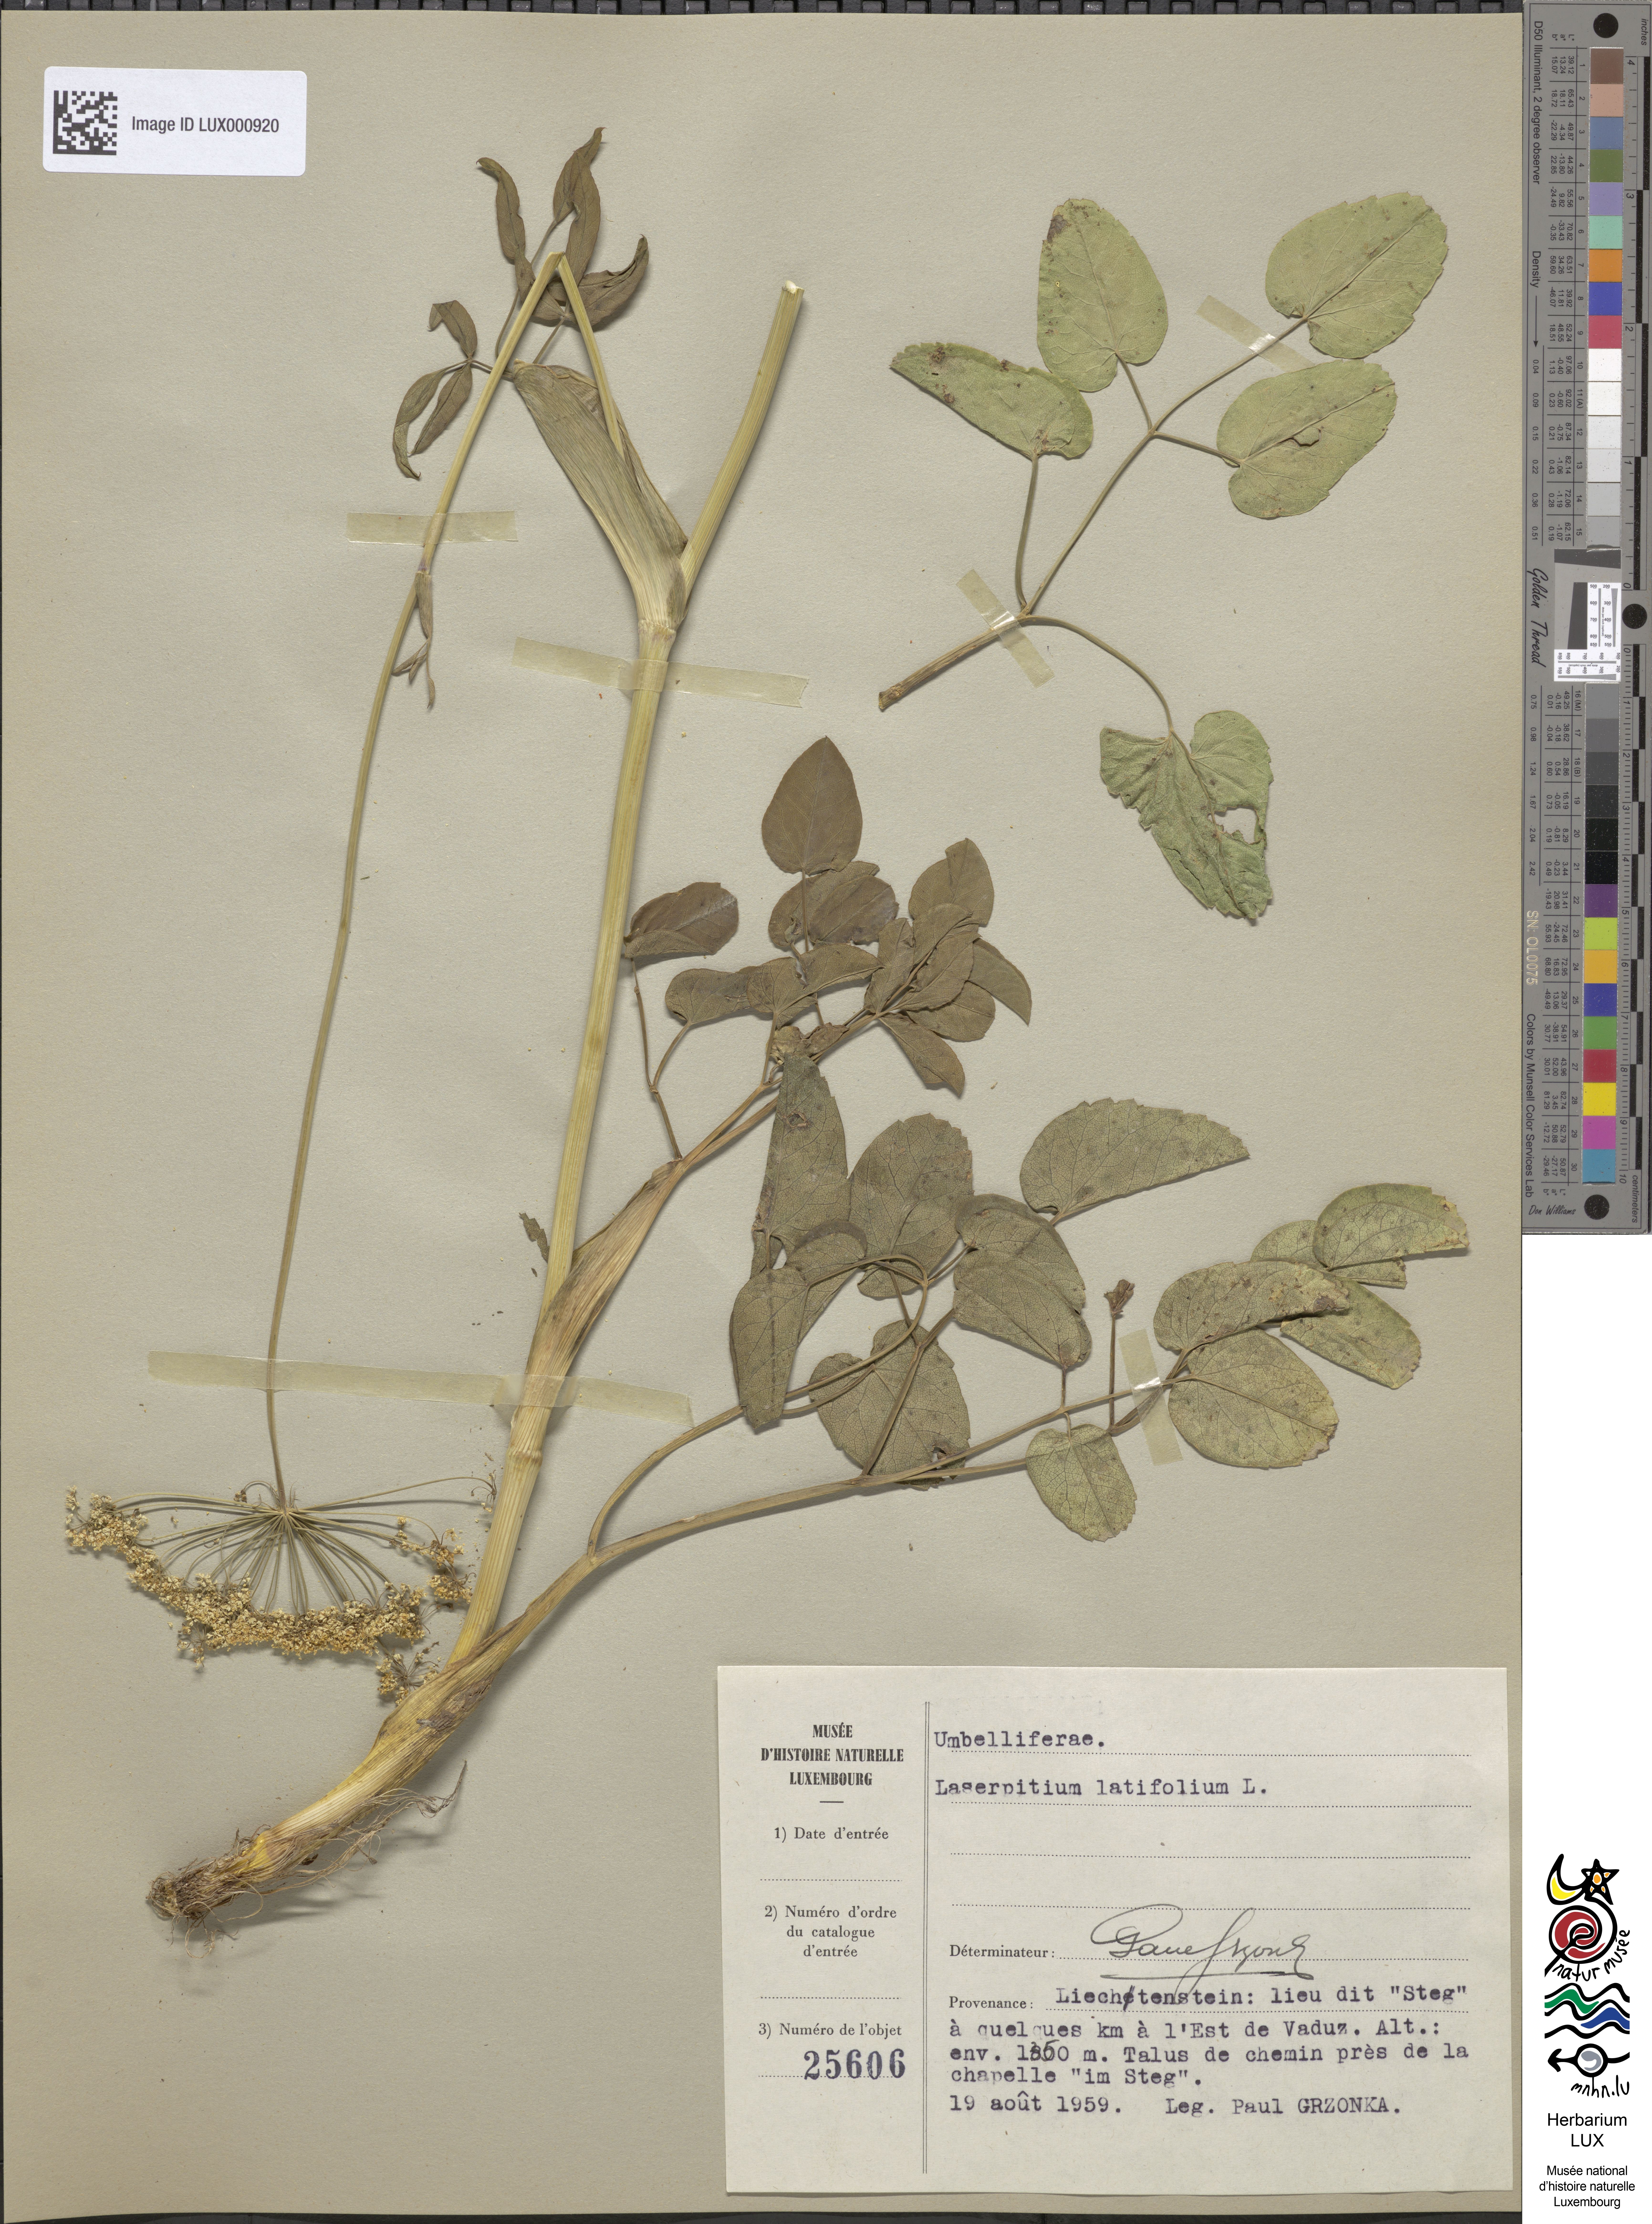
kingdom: Plantae
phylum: Tracheophyta
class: Magnoliopsida
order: Apiales
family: Apiaceae
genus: Laserpitium
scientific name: Laserpitium latifolium
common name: Broadleaf sermountain
